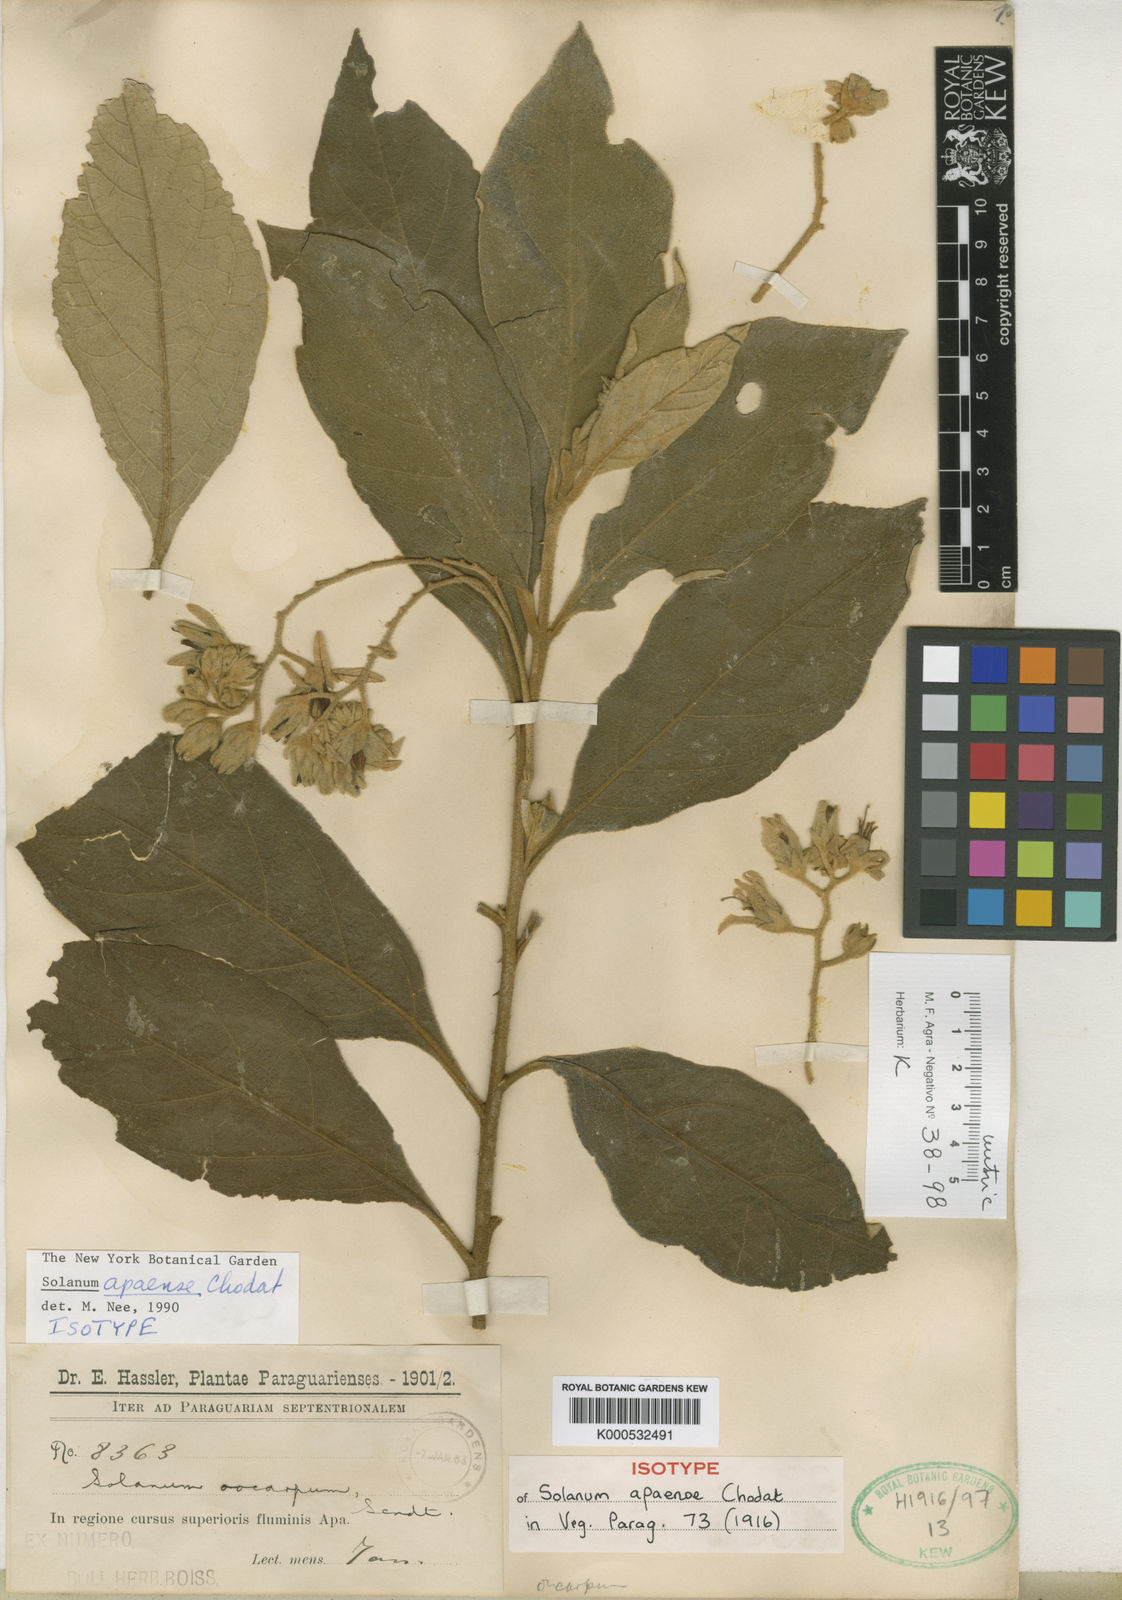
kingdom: Plantae
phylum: Tracheophyta
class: Magnoliopsida
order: Solanales
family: Solanaceae
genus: Solanum
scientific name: Solanum rhytidoandrum
